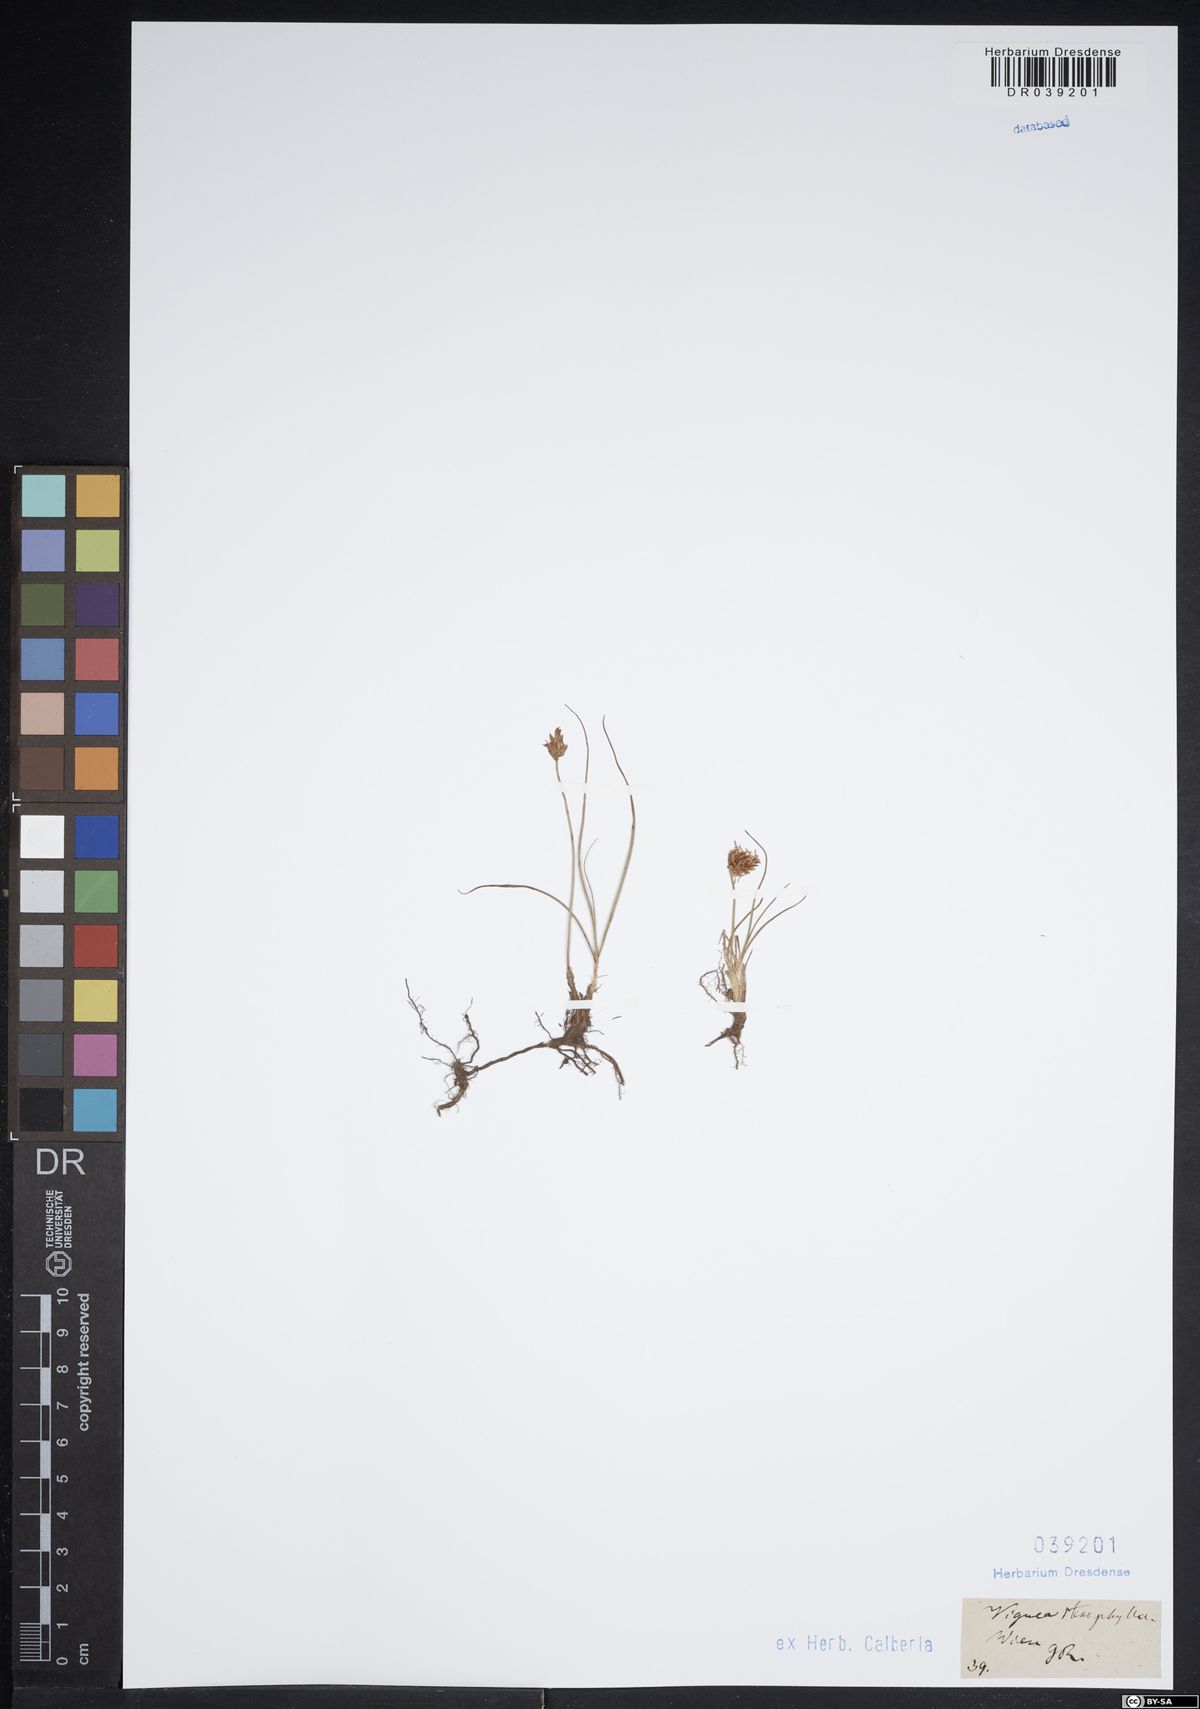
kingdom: Plantae
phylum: Tracheophyta
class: Liliopsida
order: Poales
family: Cyperaceae
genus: Carex
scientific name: Carex stenophylla
